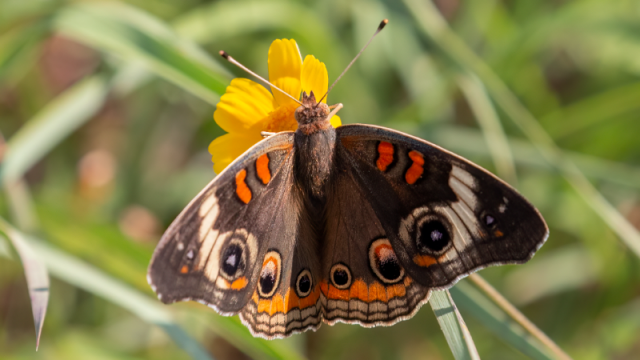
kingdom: Animalia
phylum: Arthropoda
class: Insecta
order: Lepidoptera
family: Nymphalidae
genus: Junonia
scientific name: Junonia coenia
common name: Common Buckeye
